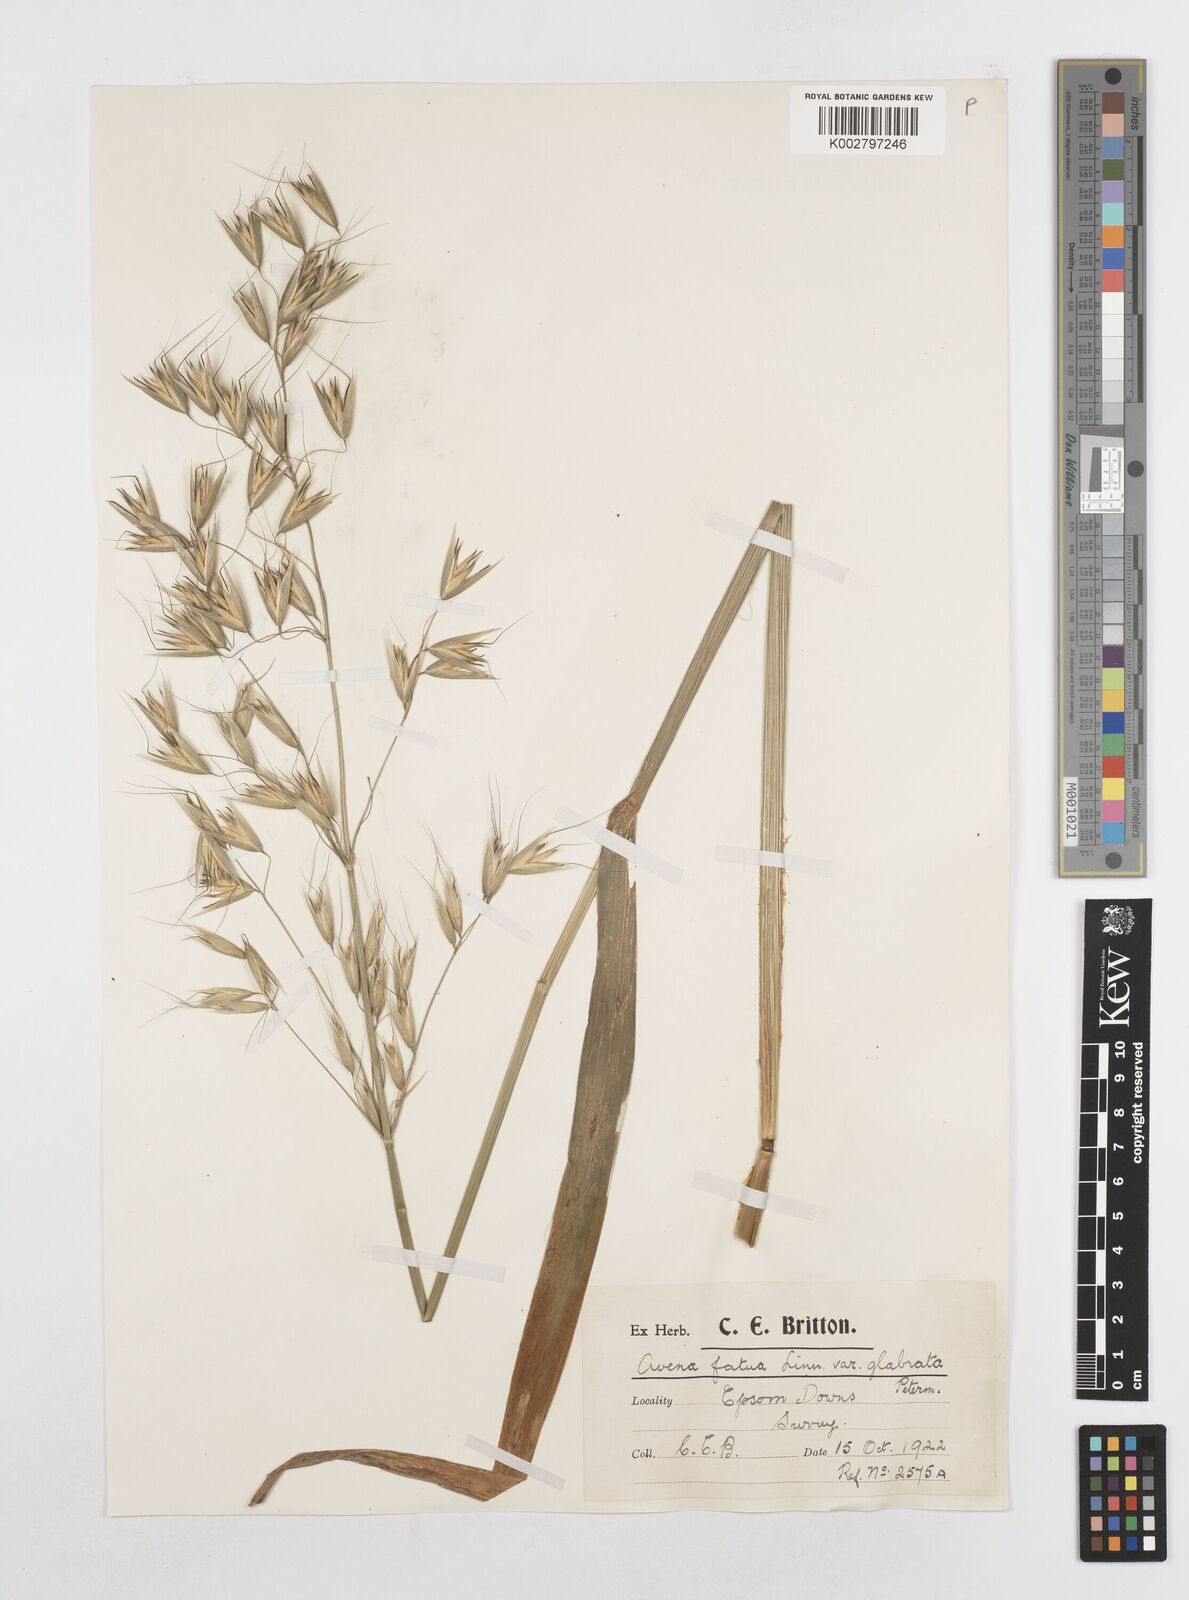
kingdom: Plantae
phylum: Tracheophyta
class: Liliopsida
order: Poales
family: Poaceae
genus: Avena
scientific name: Avena fatua
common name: Wild oat
